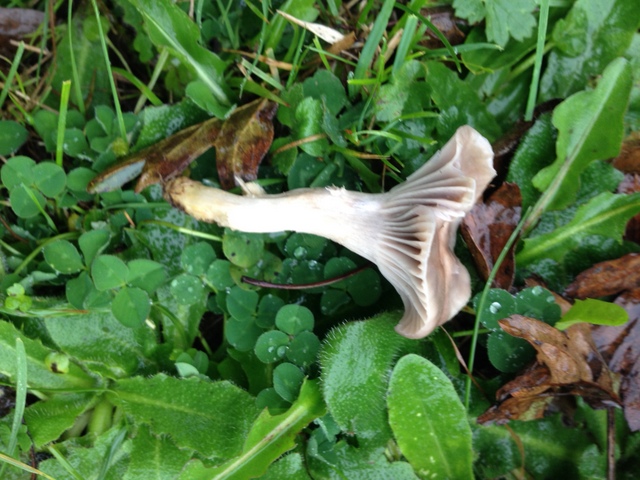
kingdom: Fungi
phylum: Basidiomycota
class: Agaricomycetes
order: Agaricales
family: Hygrophoraceae
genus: Cuphophyllus
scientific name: Cuphophyllus flavipes
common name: gulfodet vokshat
